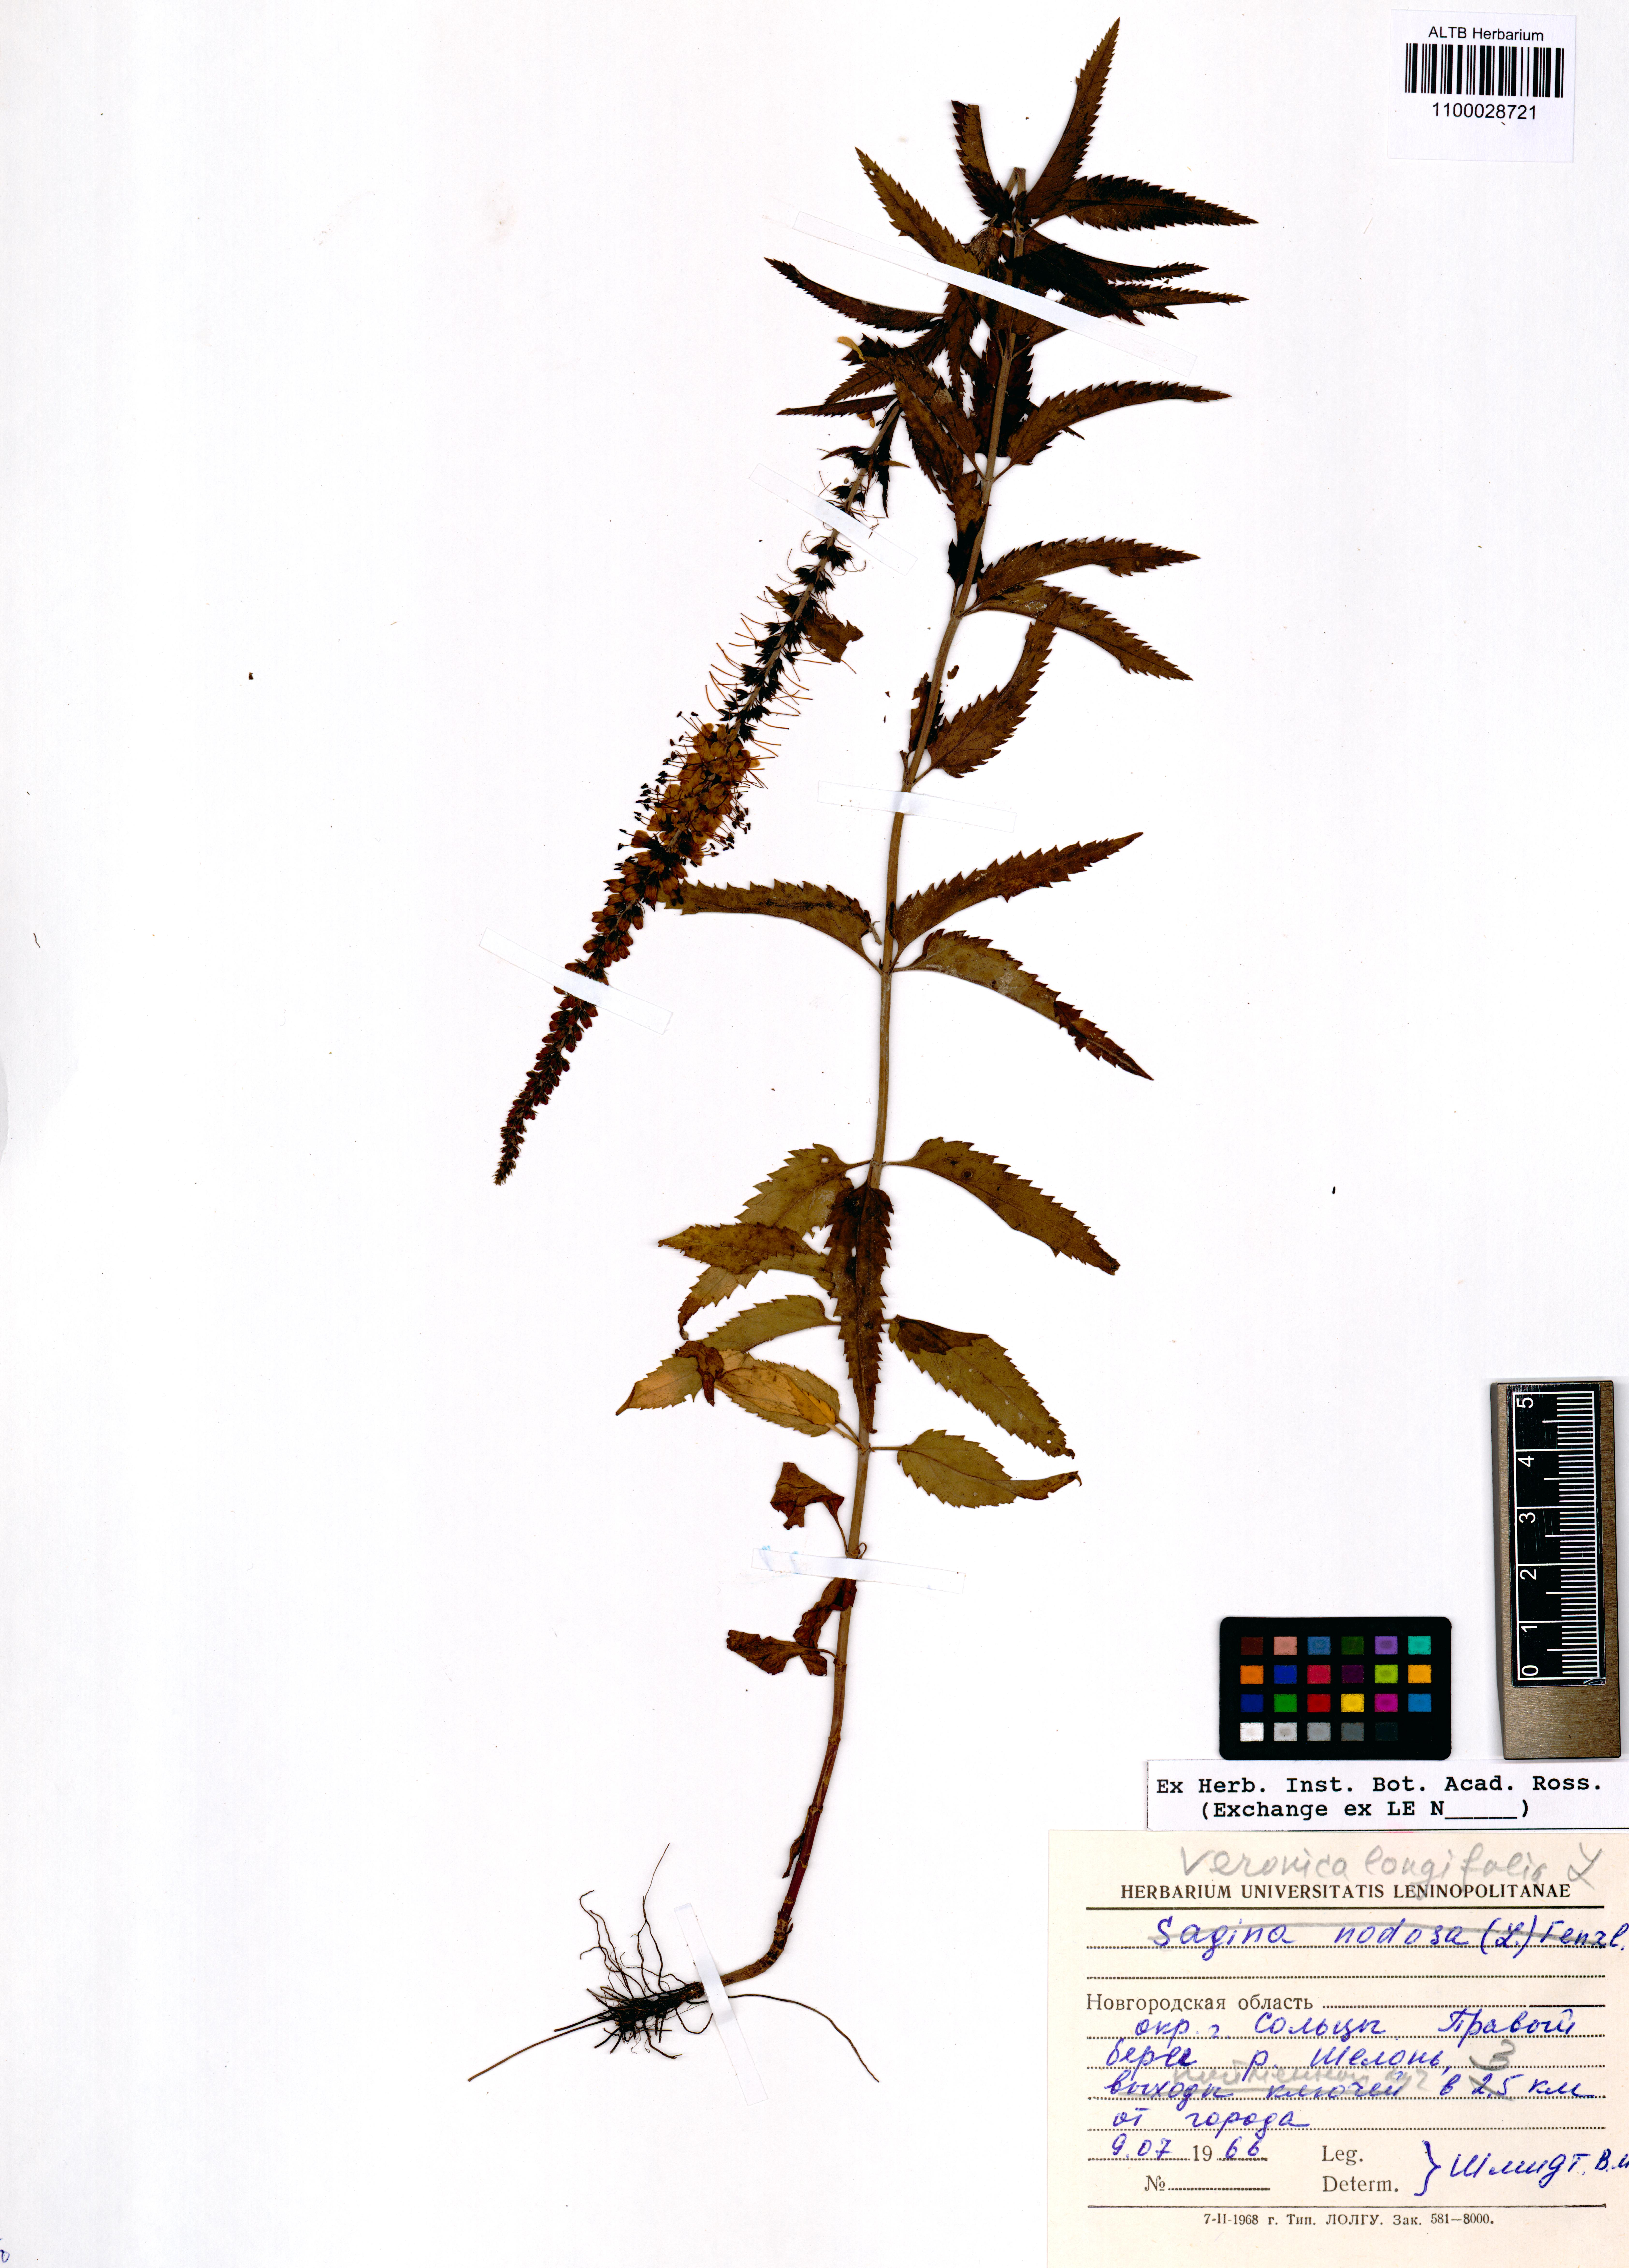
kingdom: Plantae
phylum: Tracheophyta
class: Magnoliopsida
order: Lamiales
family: Plantaginaceae
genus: Veronica
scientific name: Veronica longifolia
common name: Garden speedwell
